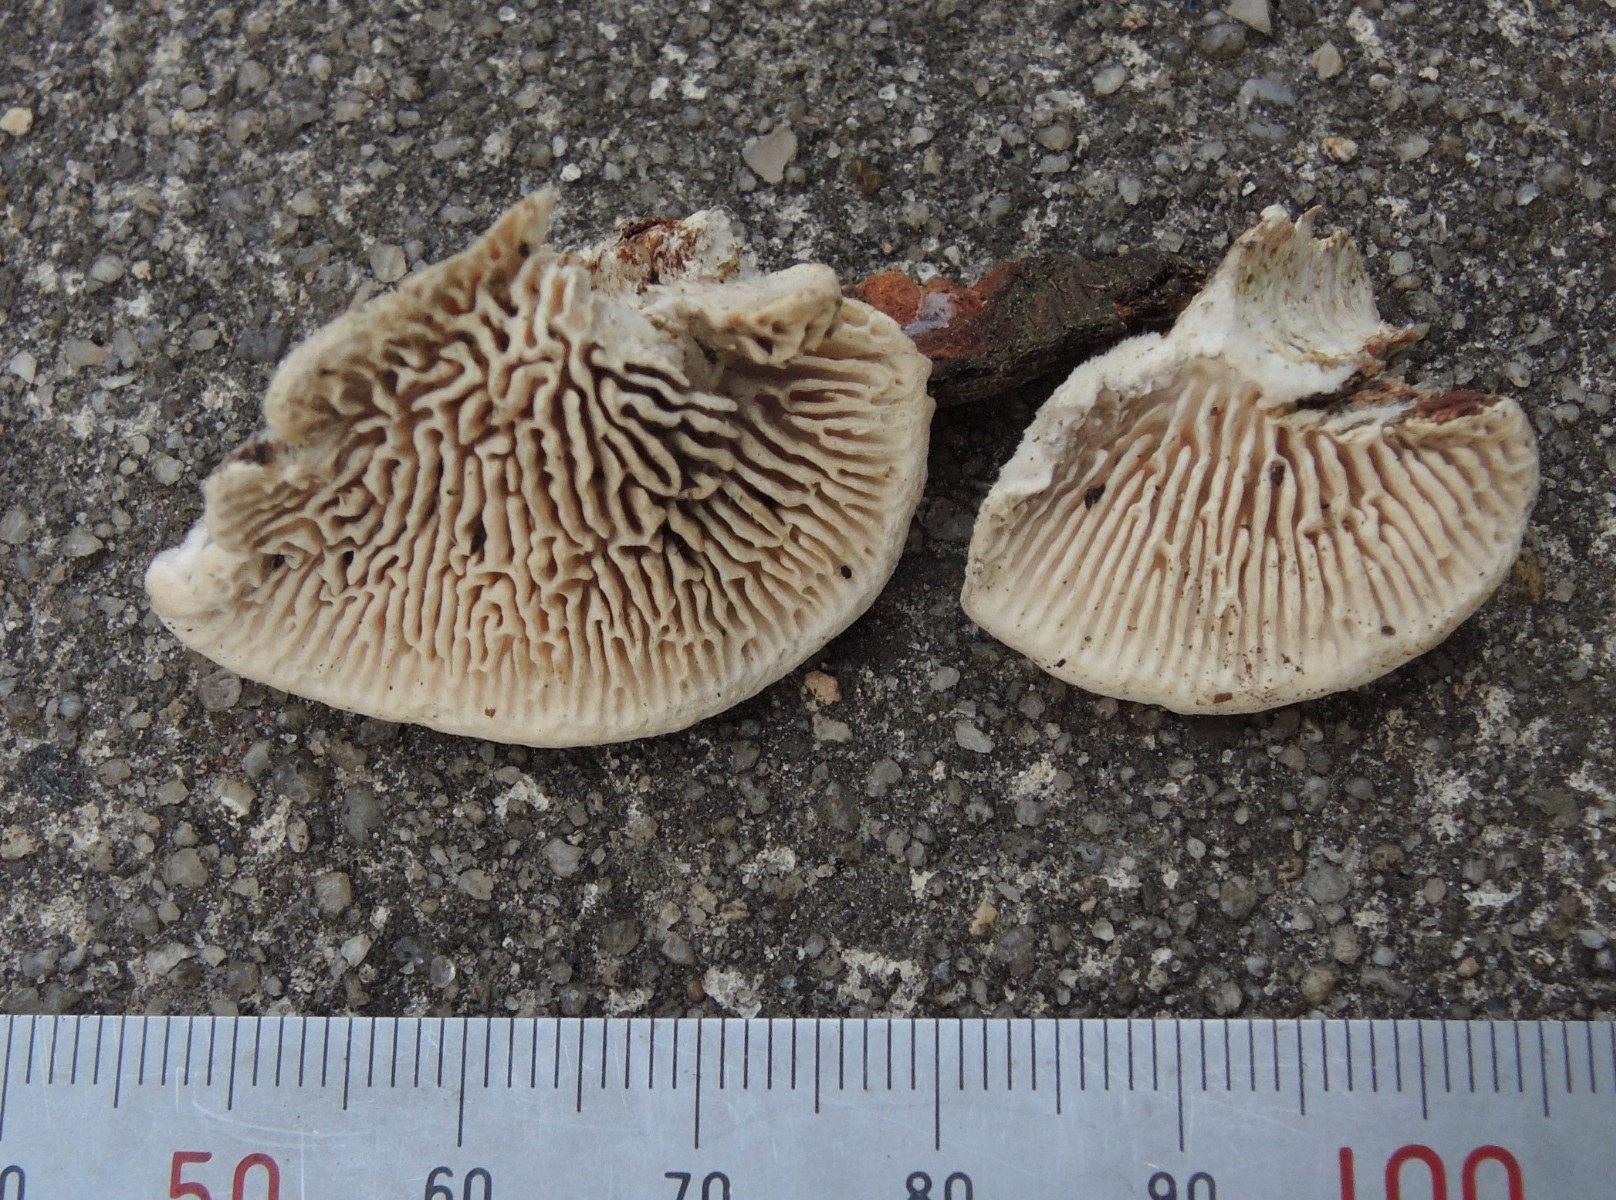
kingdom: Fungi
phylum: Basidiomycota
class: Agaricomycetes
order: Polyporales
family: Polyporaceae
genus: Lenzites
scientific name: Lenzites betulinus
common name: birke-læderporesvamp
